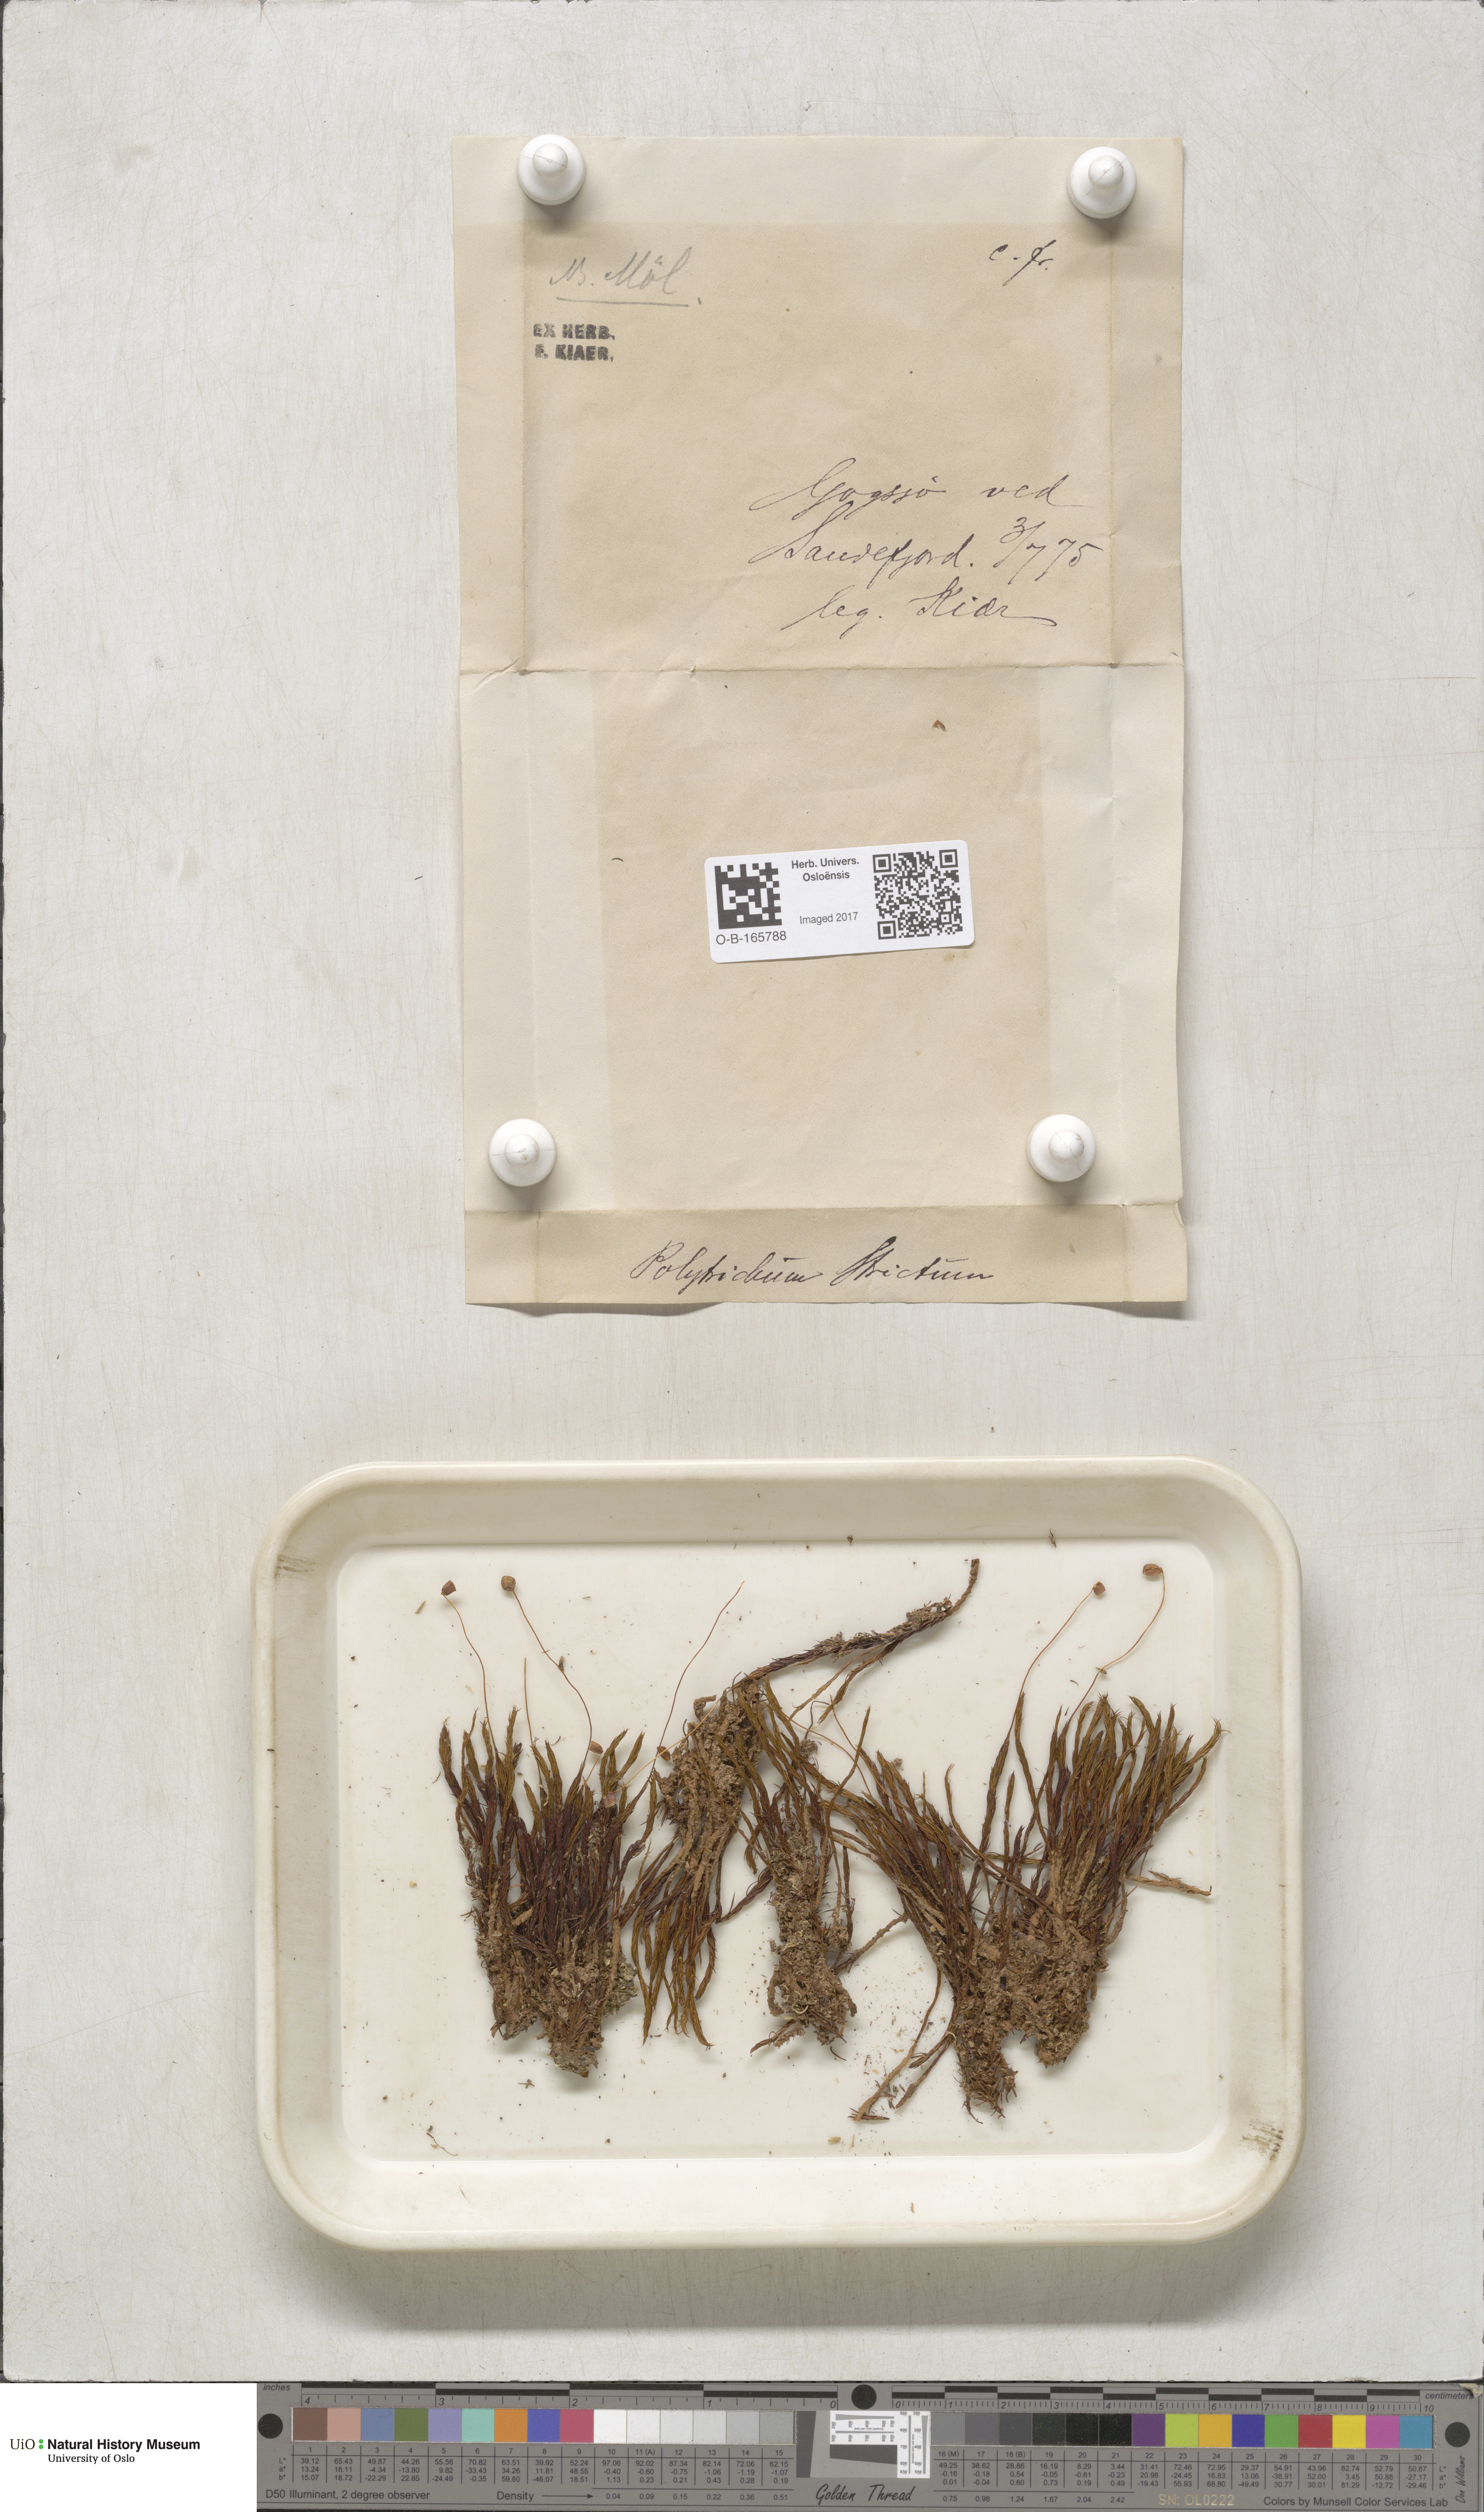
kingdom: Plantae
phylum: Bryophyta
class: Polytrichopsida
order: Polytrichales
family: Polytrichaceae
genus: Polytrichum
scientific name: Polytrichum strictum
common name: Bog haircap moss
